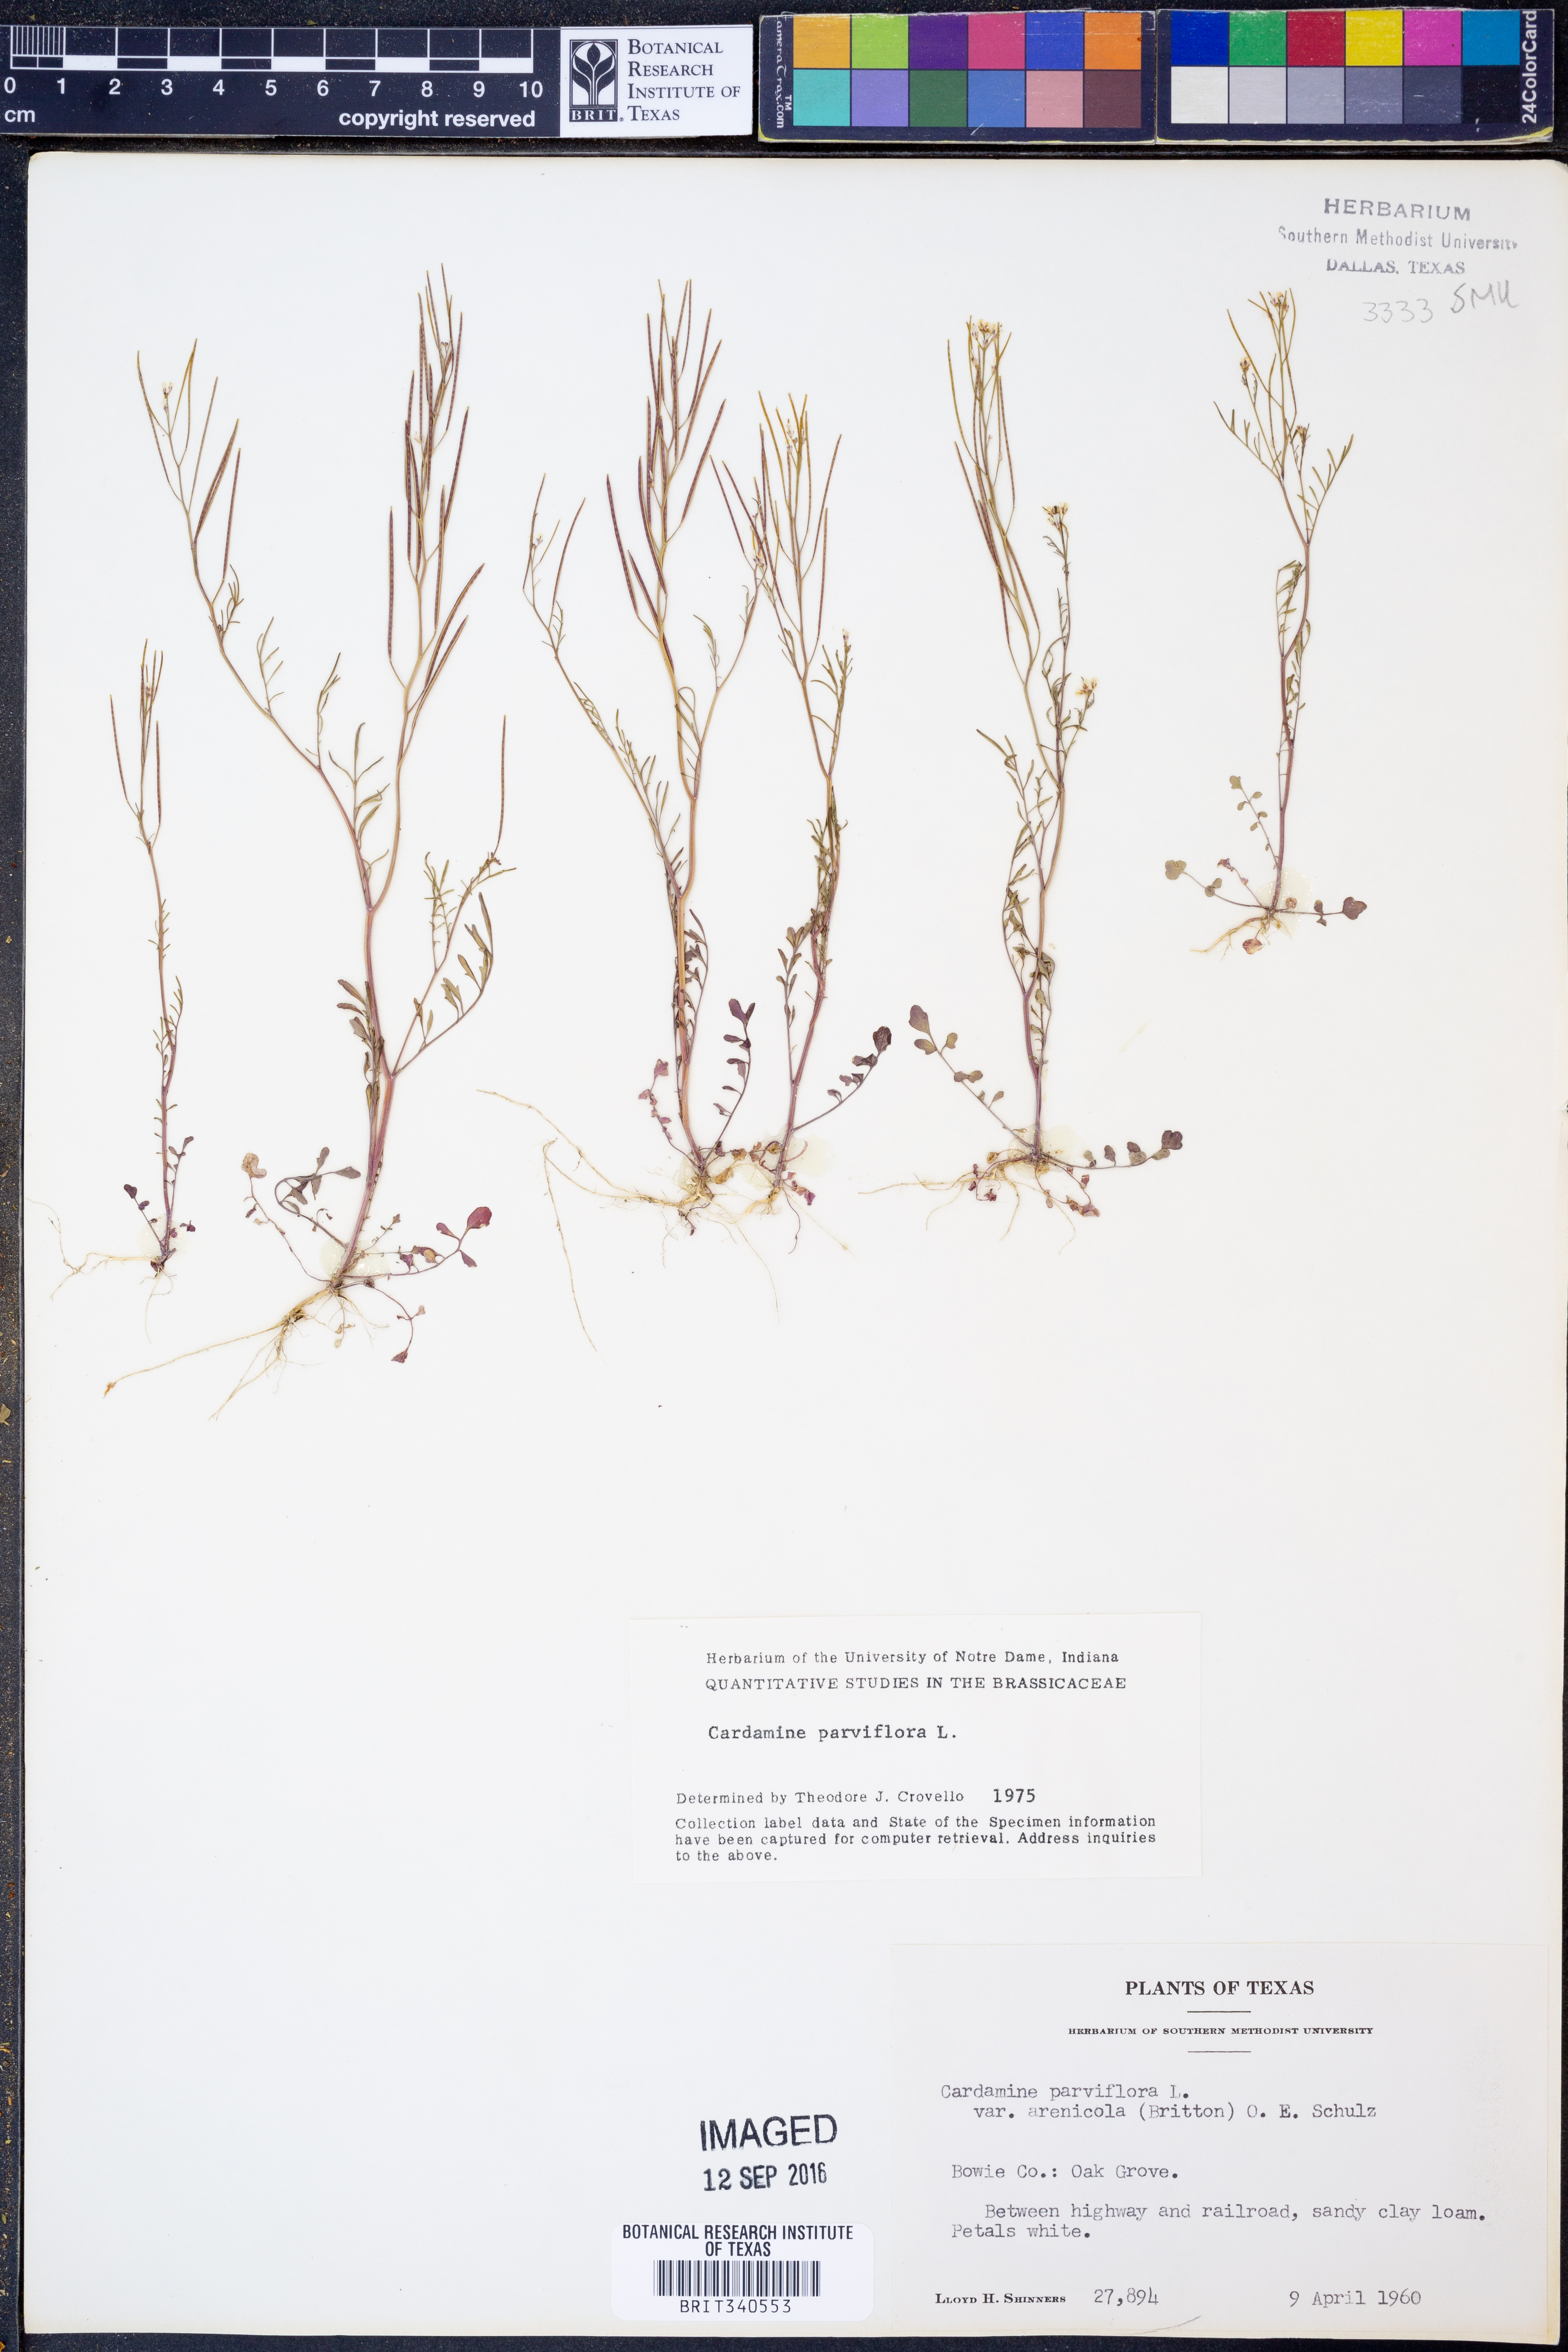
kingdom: Plantae
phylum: Tracheophyta
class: Magnoliopsida
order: Brassicales
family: Brassicaceae
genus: Cardamine
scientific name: Cardamine parviflora
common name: Sand bittercress
